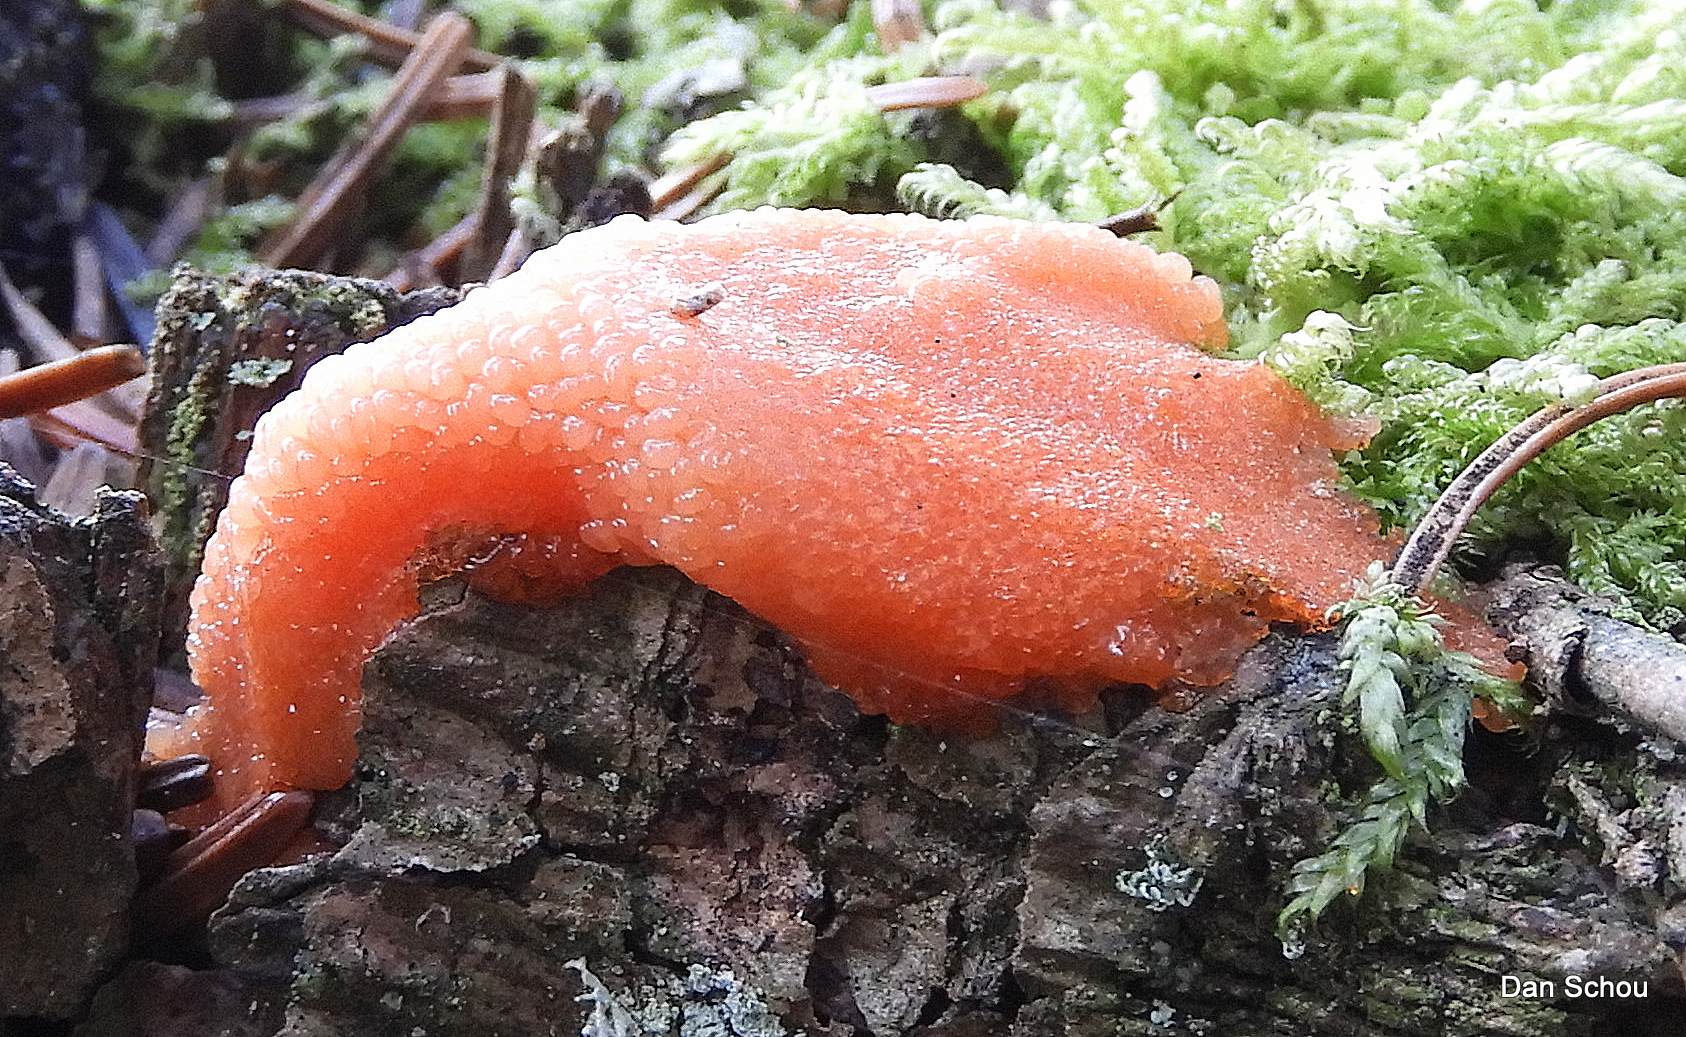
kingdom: Protozoa
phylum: Mycetozoa
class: Myxomycetes
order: Cribrariales
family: Tubiferaceae
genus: Tubifera
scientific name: Tubifera ferruginosa
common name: kanel-støvrør
